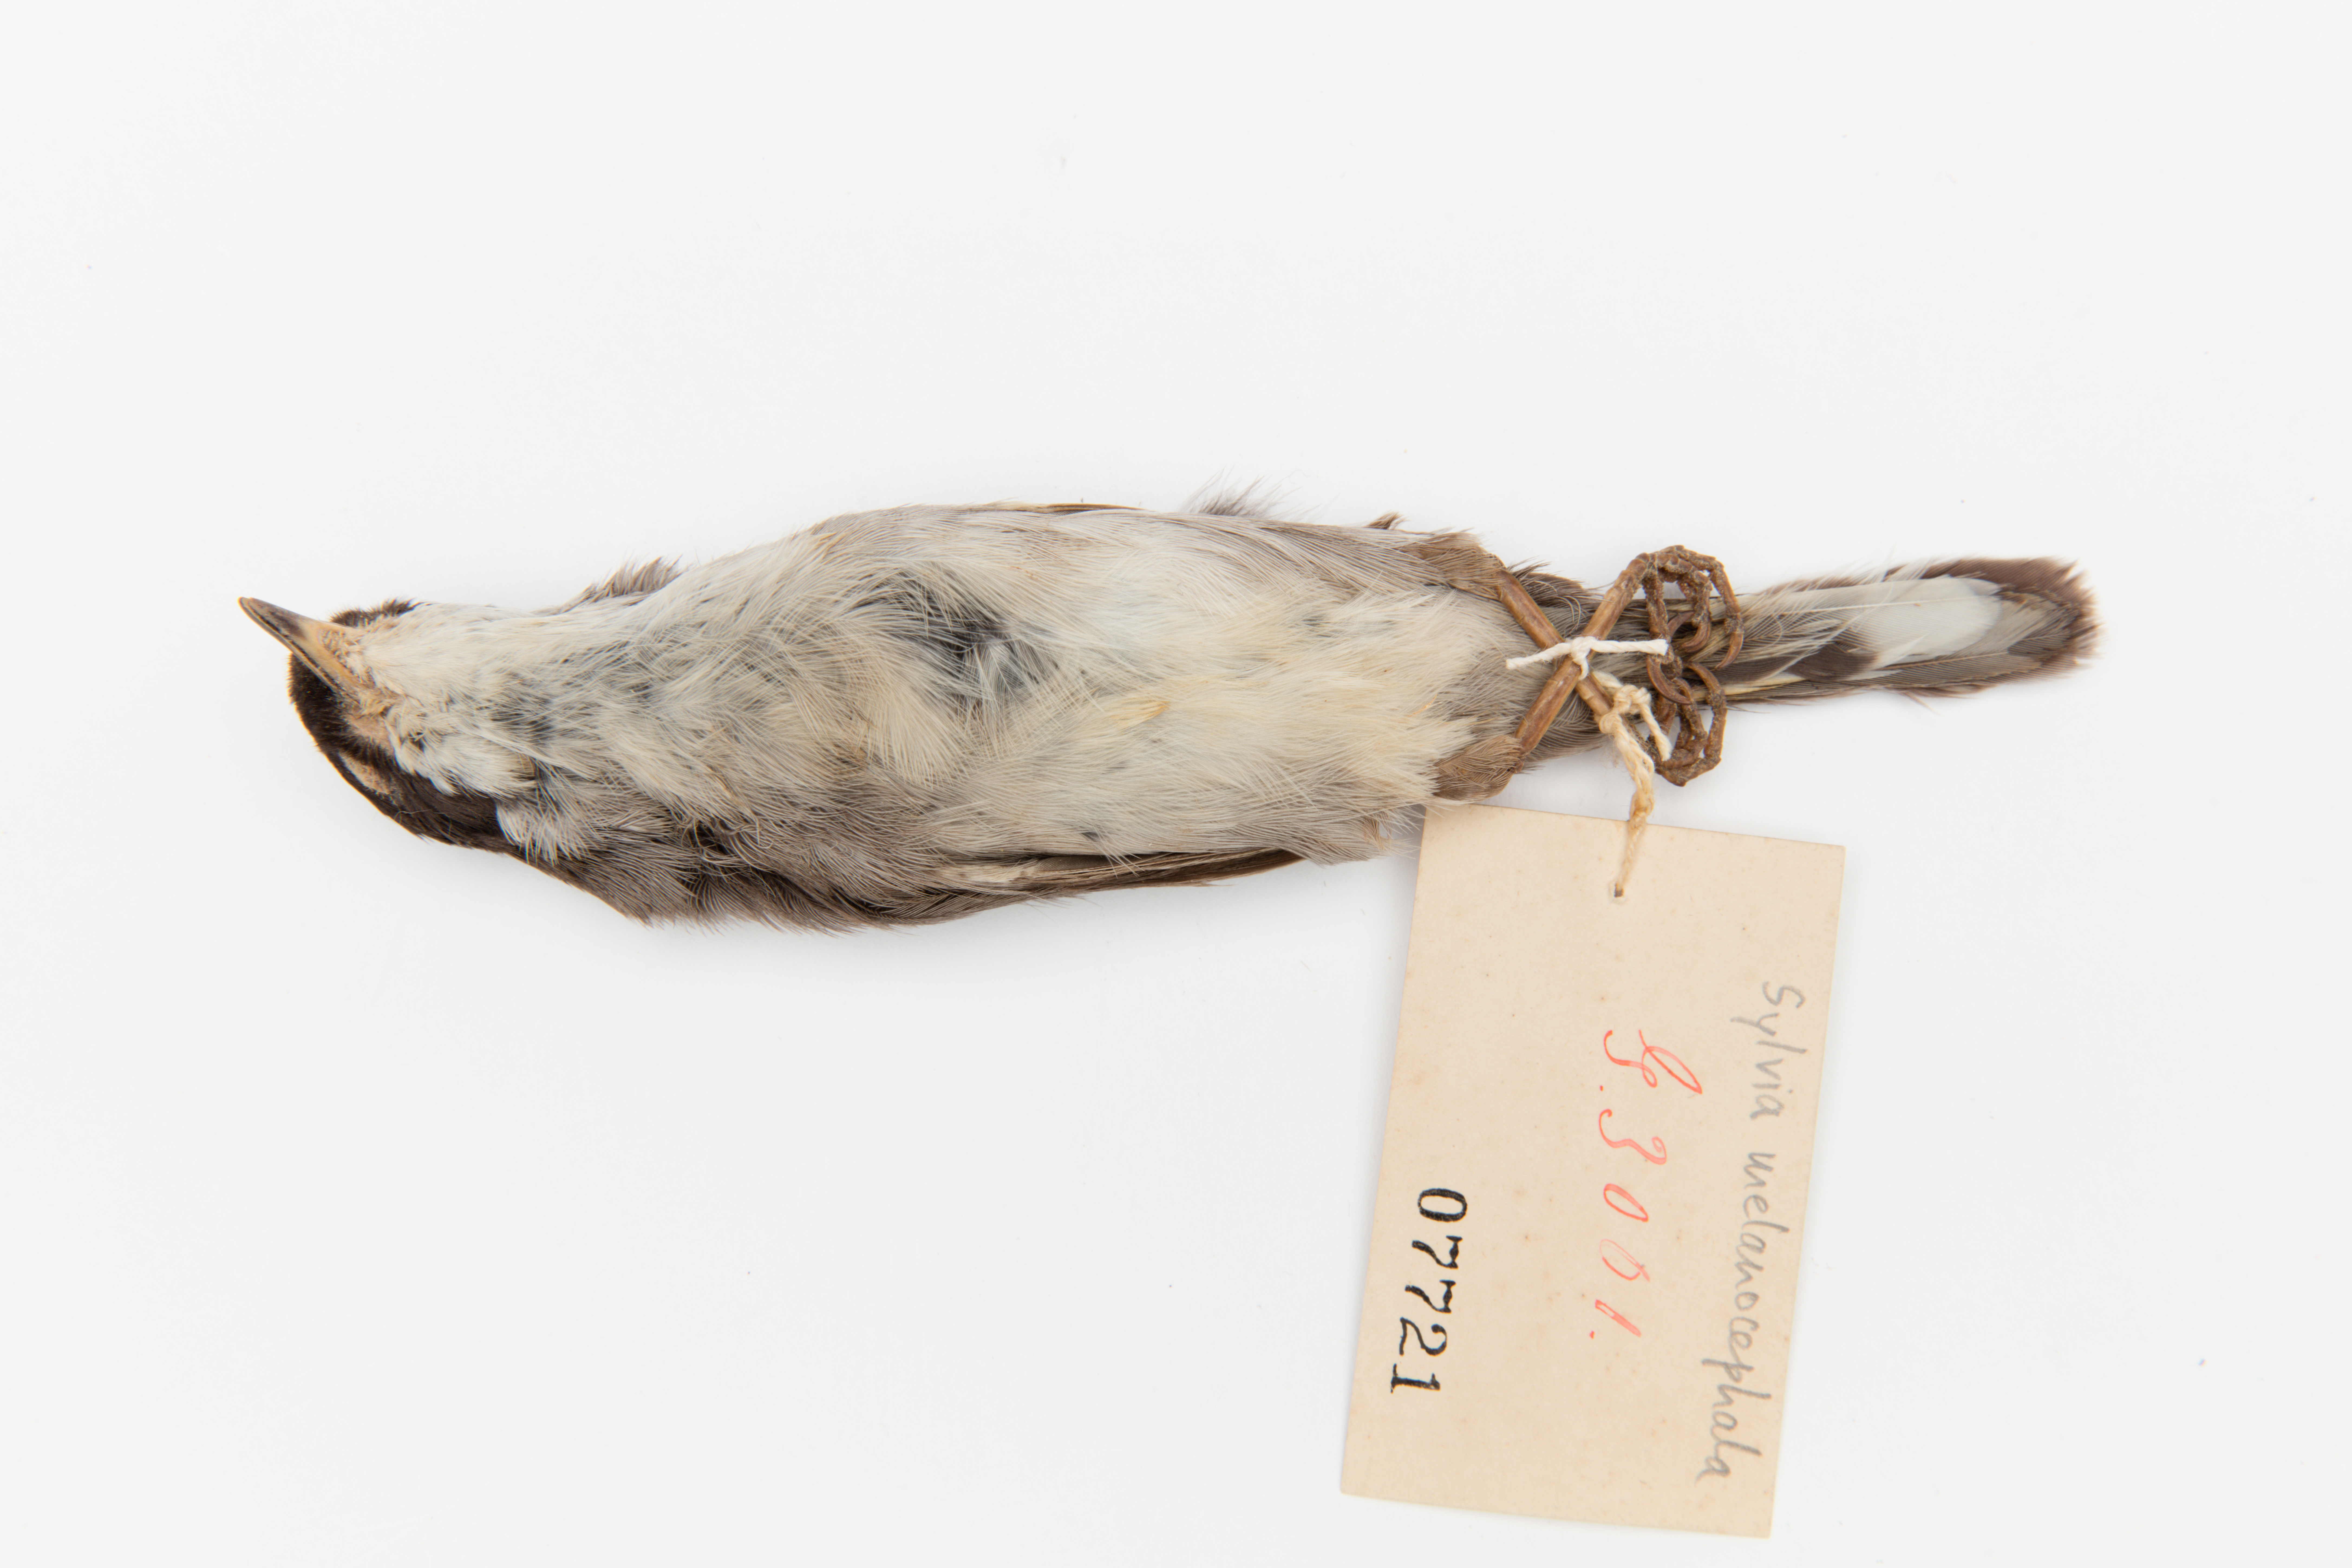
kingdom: Animalia
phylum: Chordata
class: Aves
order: Passeriformes
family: Sylviidae
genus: Sylvia
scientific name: Sylvia melanocephala
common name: Sardinian warbler
